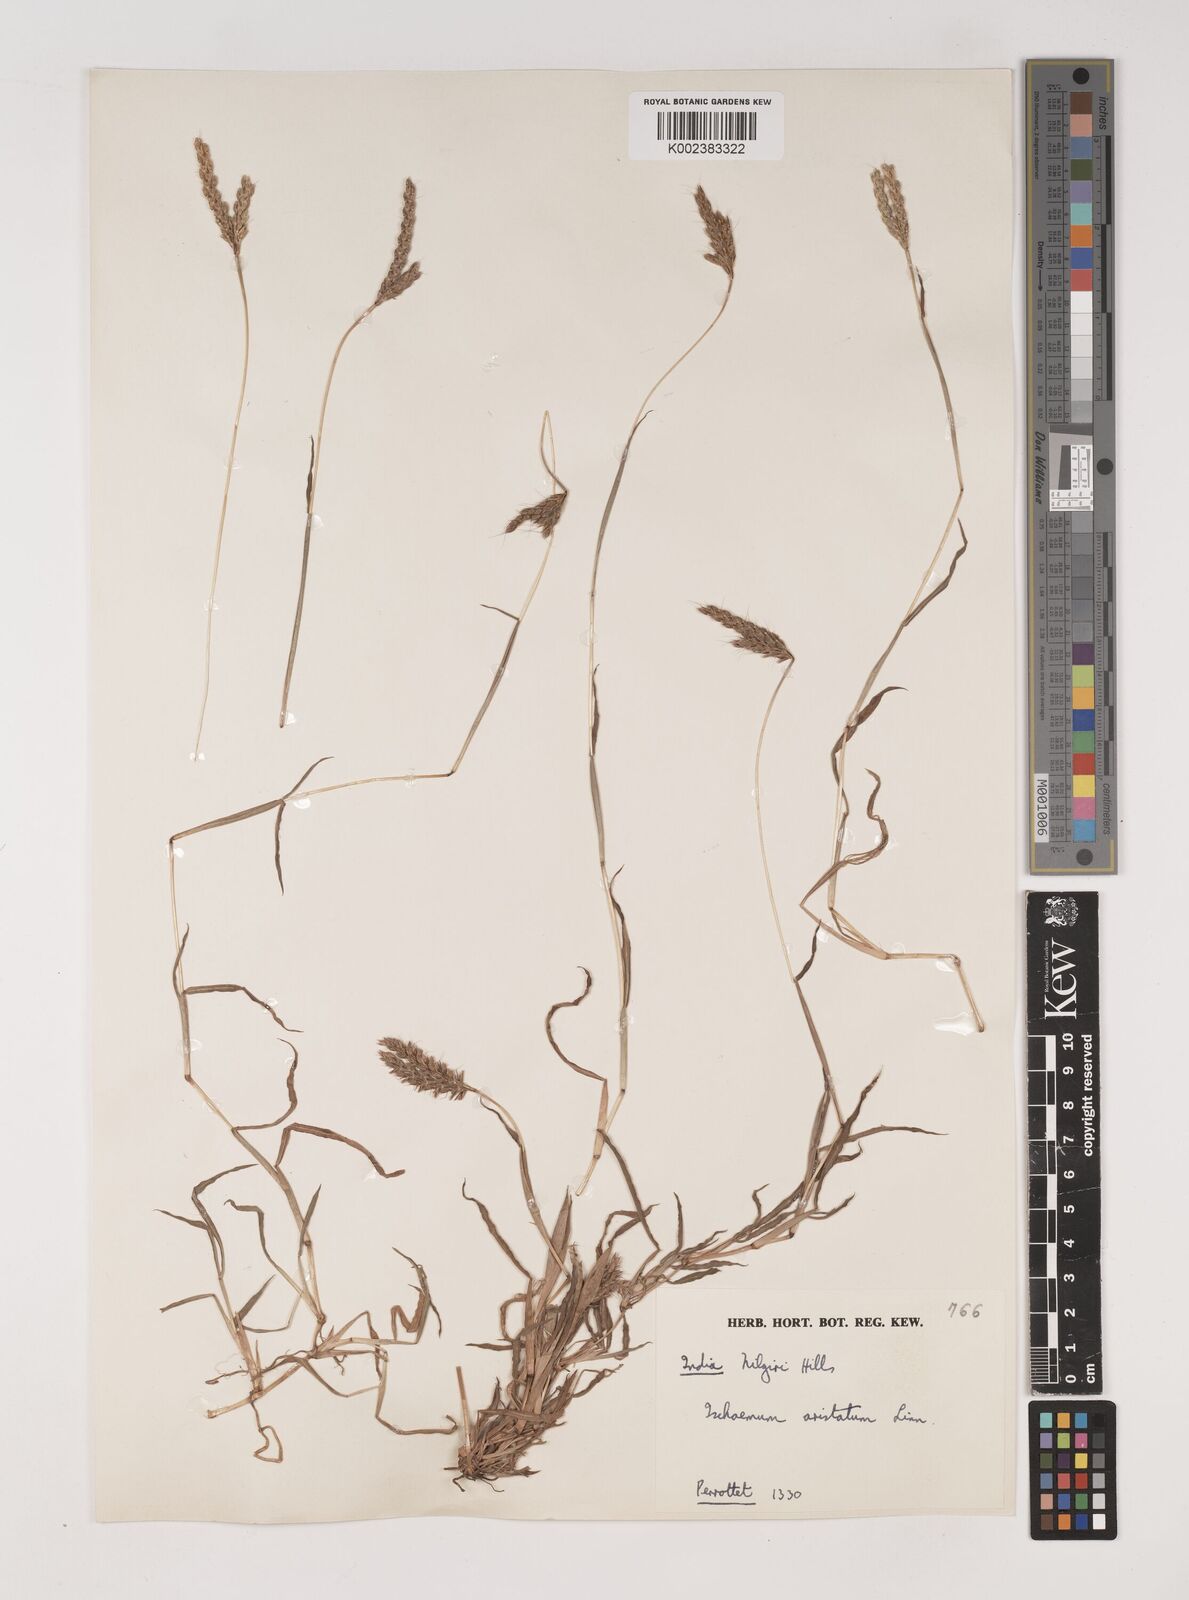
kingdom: Plantae
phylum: Tracheophyta
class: Liliopsida
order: Poales
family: Poaceae
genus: Polytrias
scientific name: Polytrias indica
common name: Indian murainagrass
